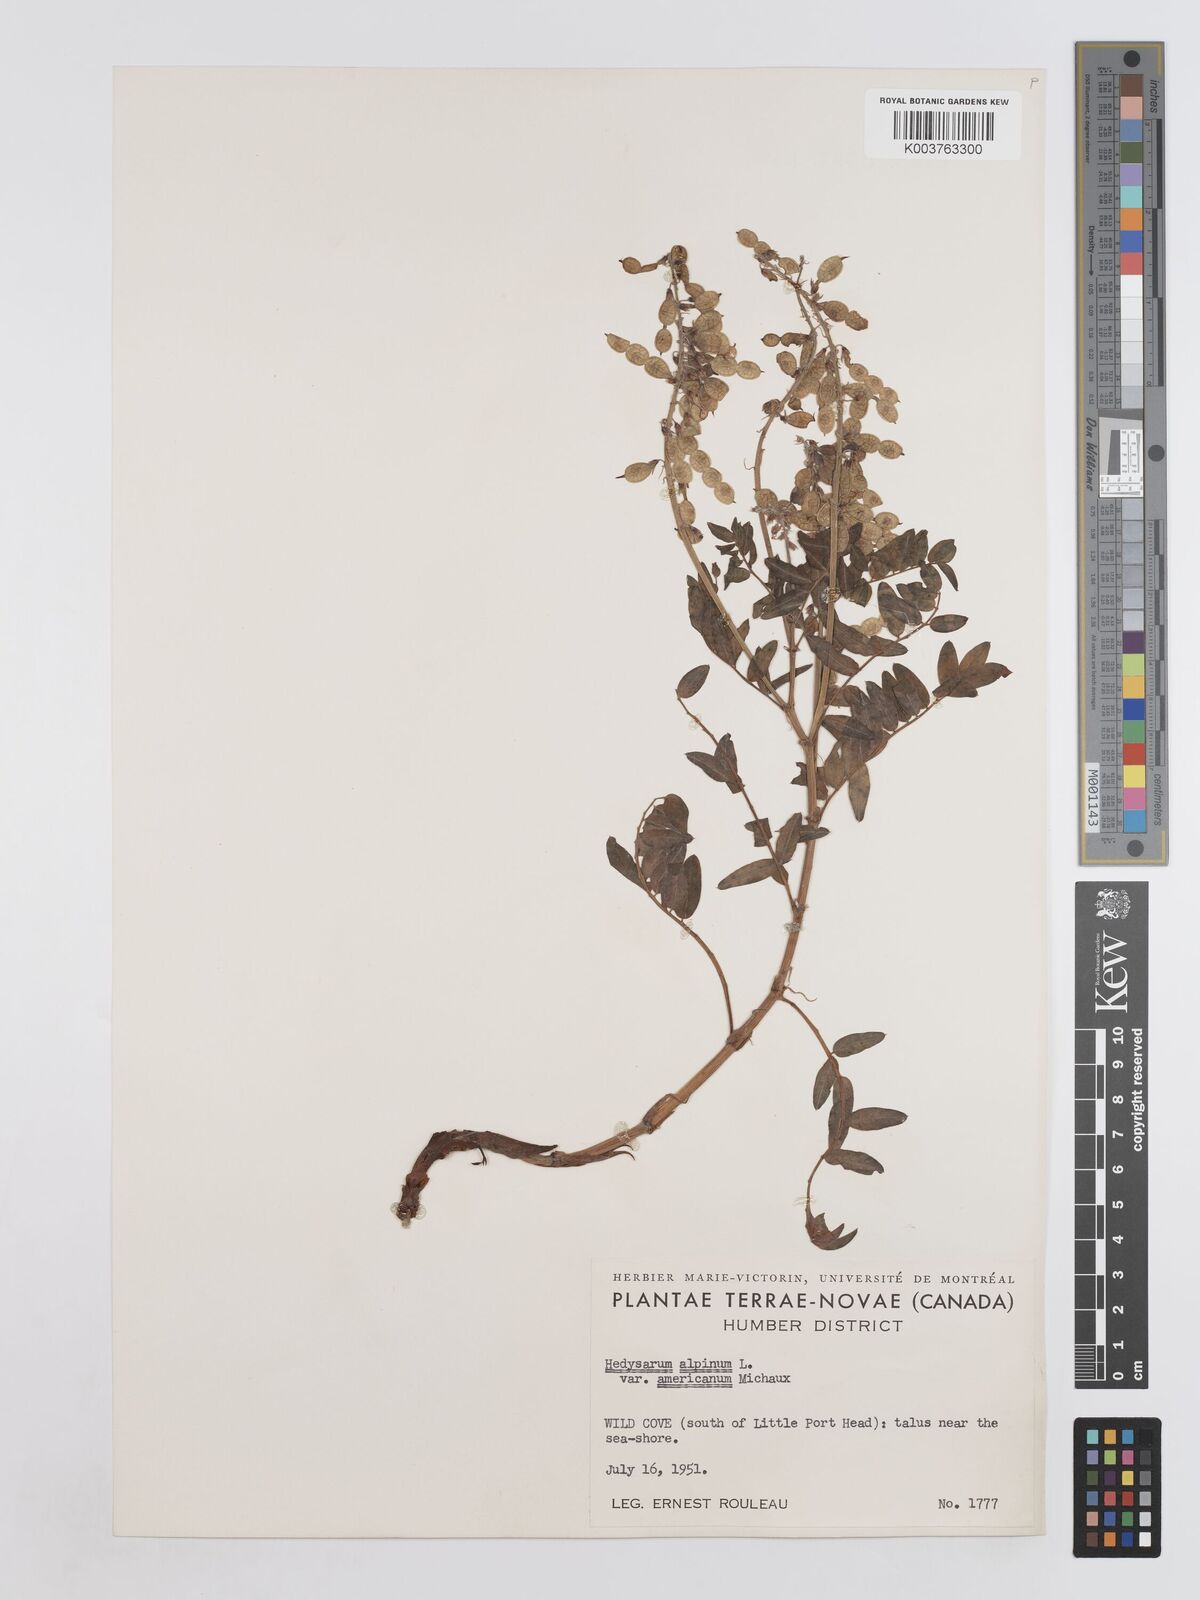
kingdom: Plantae
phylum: Tracheophyta
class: Magnoliopsida
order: Fabales
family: Fabaceae
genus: Hedysarum
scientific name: Hedysarum alpinum
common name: Alpine sweet-vetch
